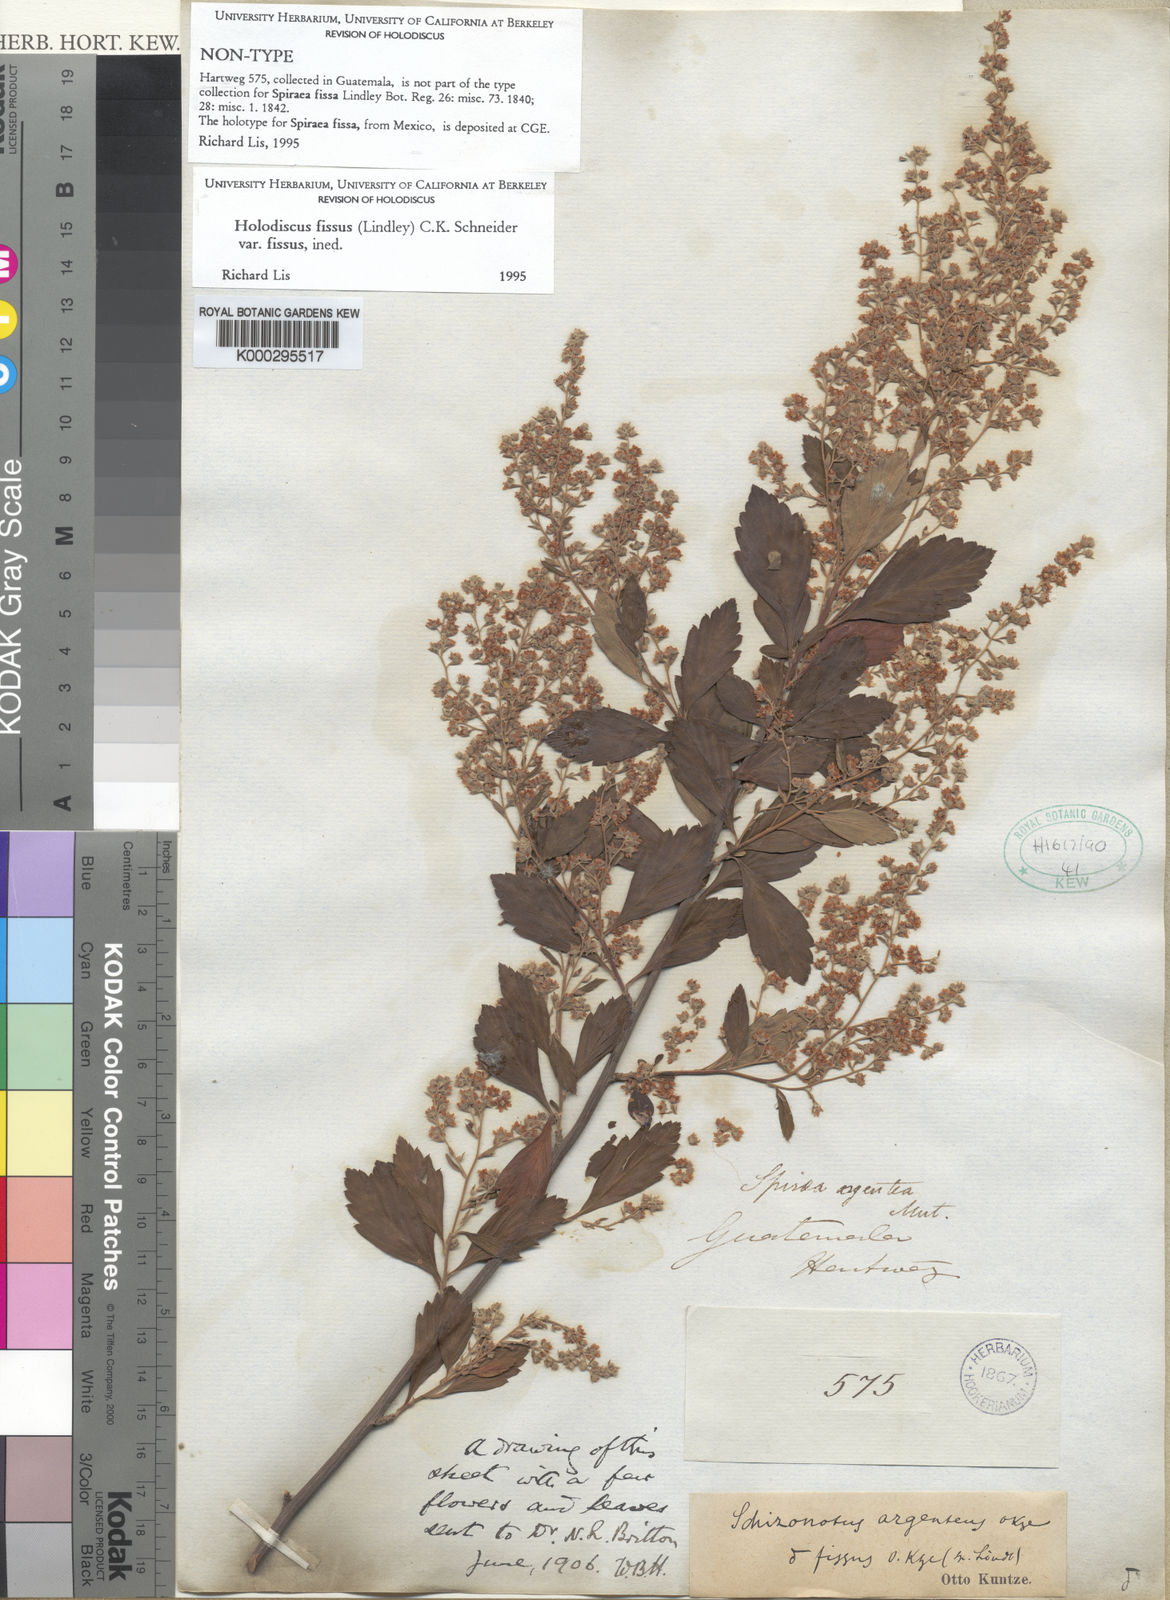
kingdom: Plantae
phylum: Tracheophyta
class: Magnoliopsida
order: Rosales
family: Rosaceae
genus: Holodiscus
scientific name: Holodiscus fissus
